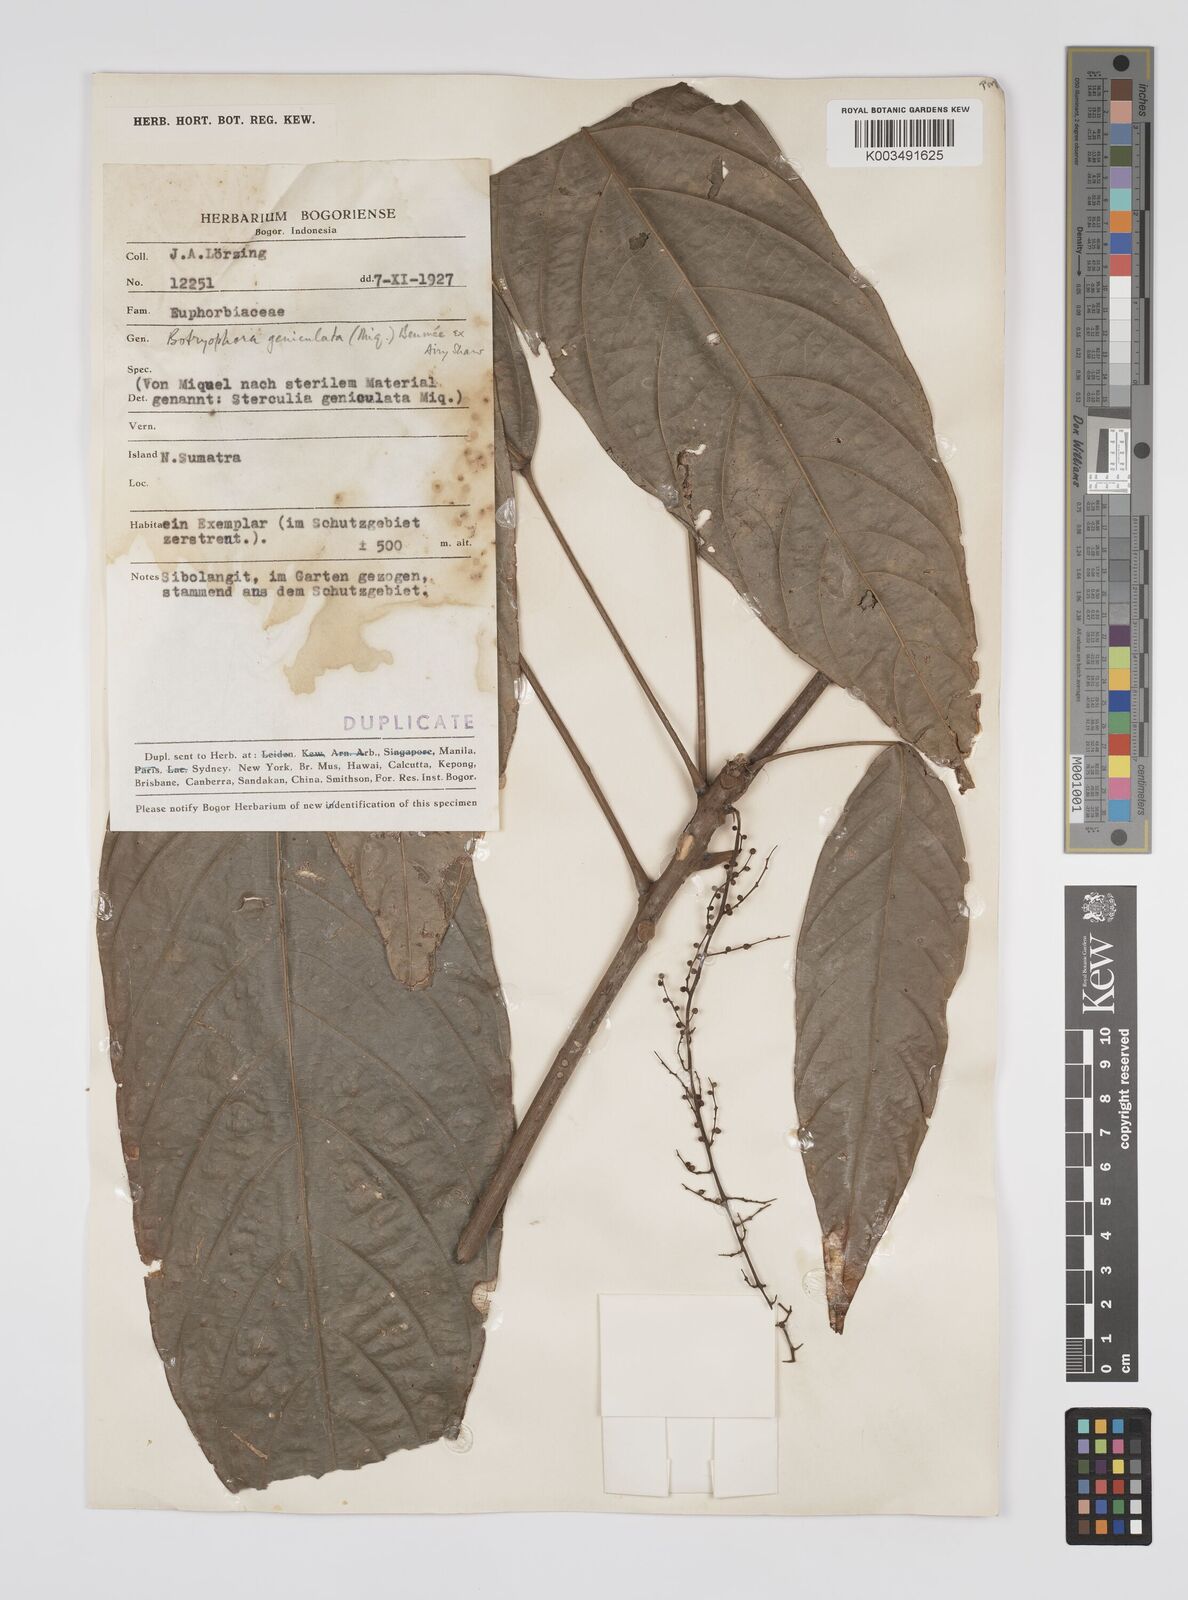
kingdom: Plantae
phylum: Tracheophyta
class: Magnoliopsida
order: Malpighiales
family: Euphorbiaceae
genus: Botryophora
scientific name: Botryophora geniculata
